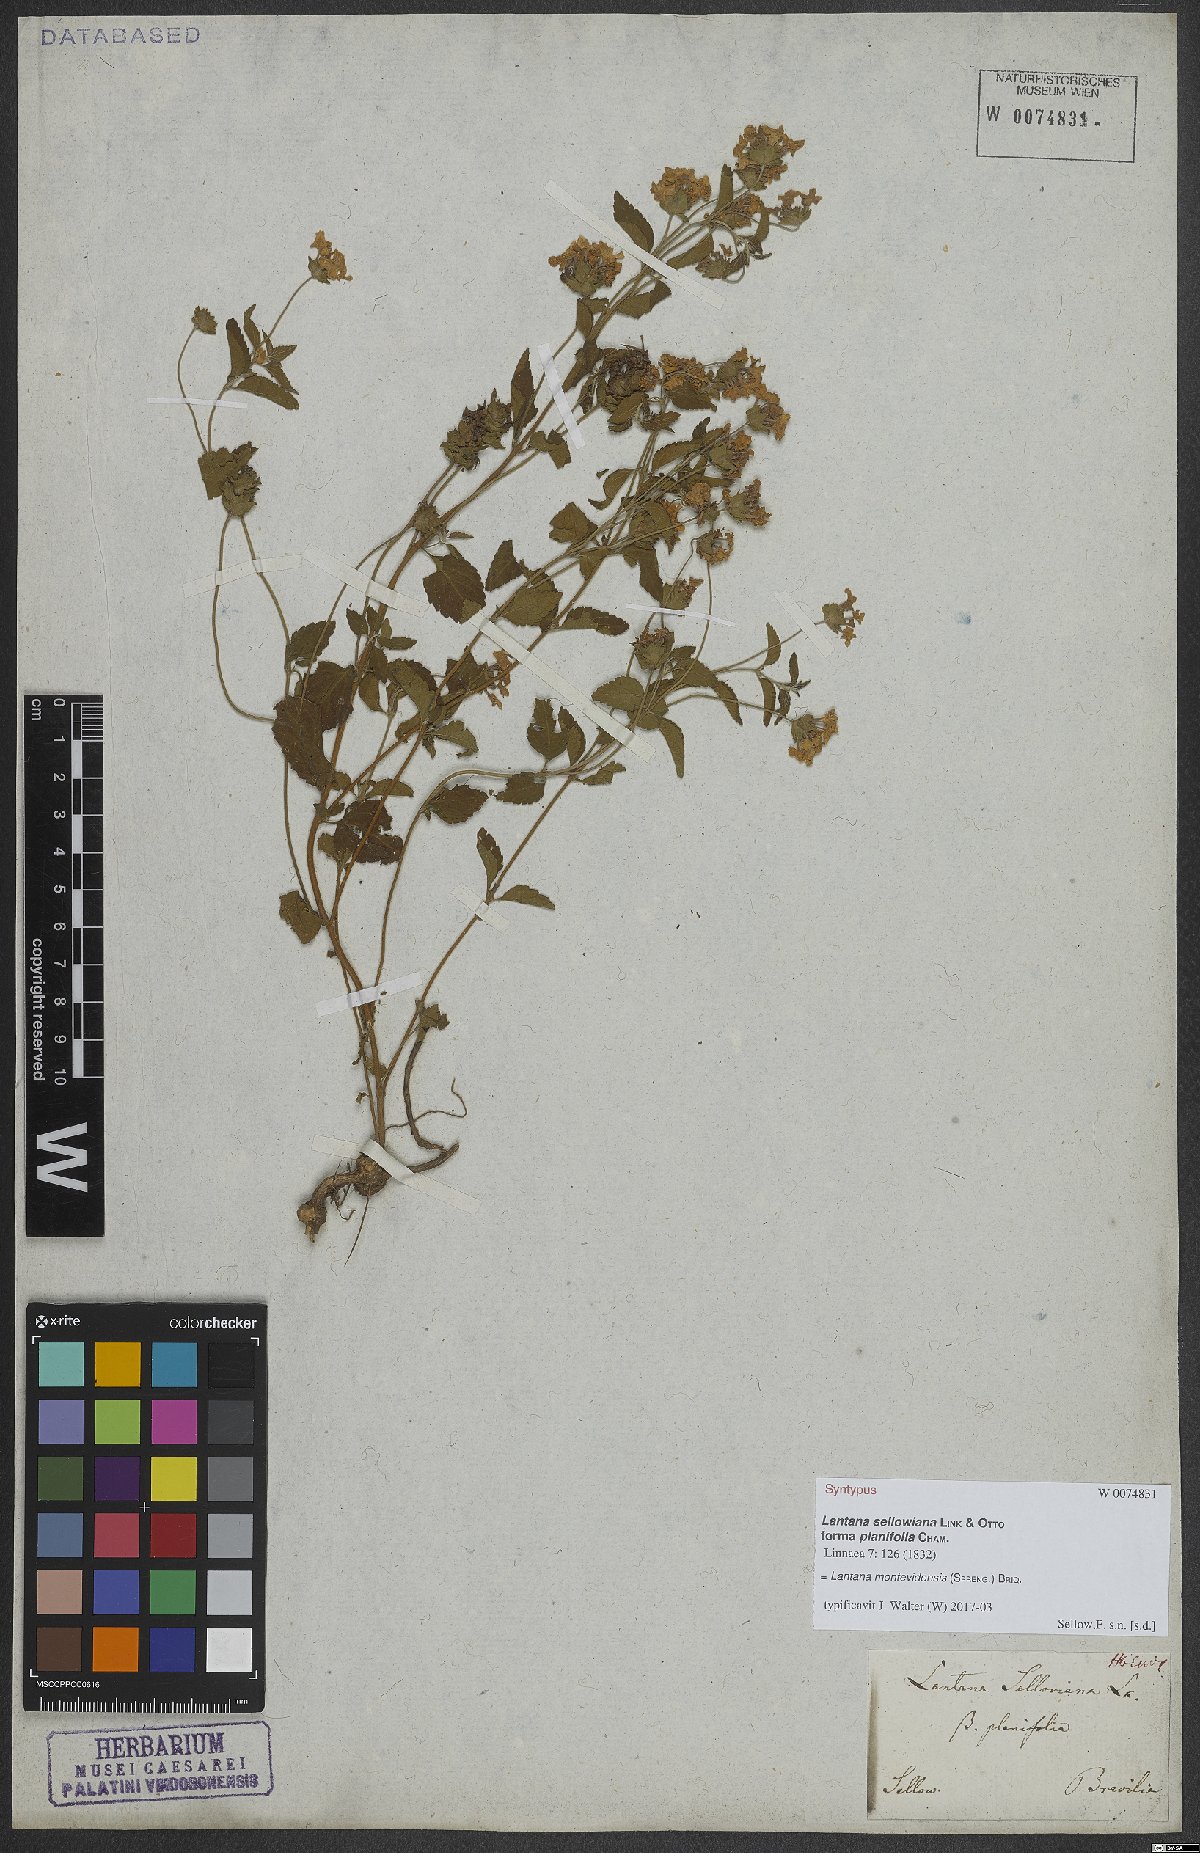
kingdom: Plantae
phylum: Tracheophyta
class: Magnoliopsida
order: Lamiales
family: Verbenaceae
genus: Lantana
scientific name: Lantana montevidensis
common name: Trailing shrubverbena
